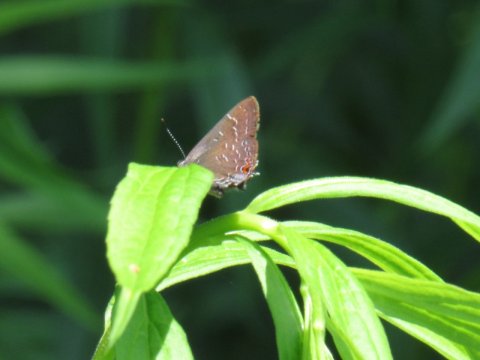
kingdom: Animalia
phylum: Arthropoda
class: Insecta
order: Lepidoptera
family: Lycaenidae
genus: Satyrium
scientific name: Satyrium calanus
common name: Banded Hairstreak
